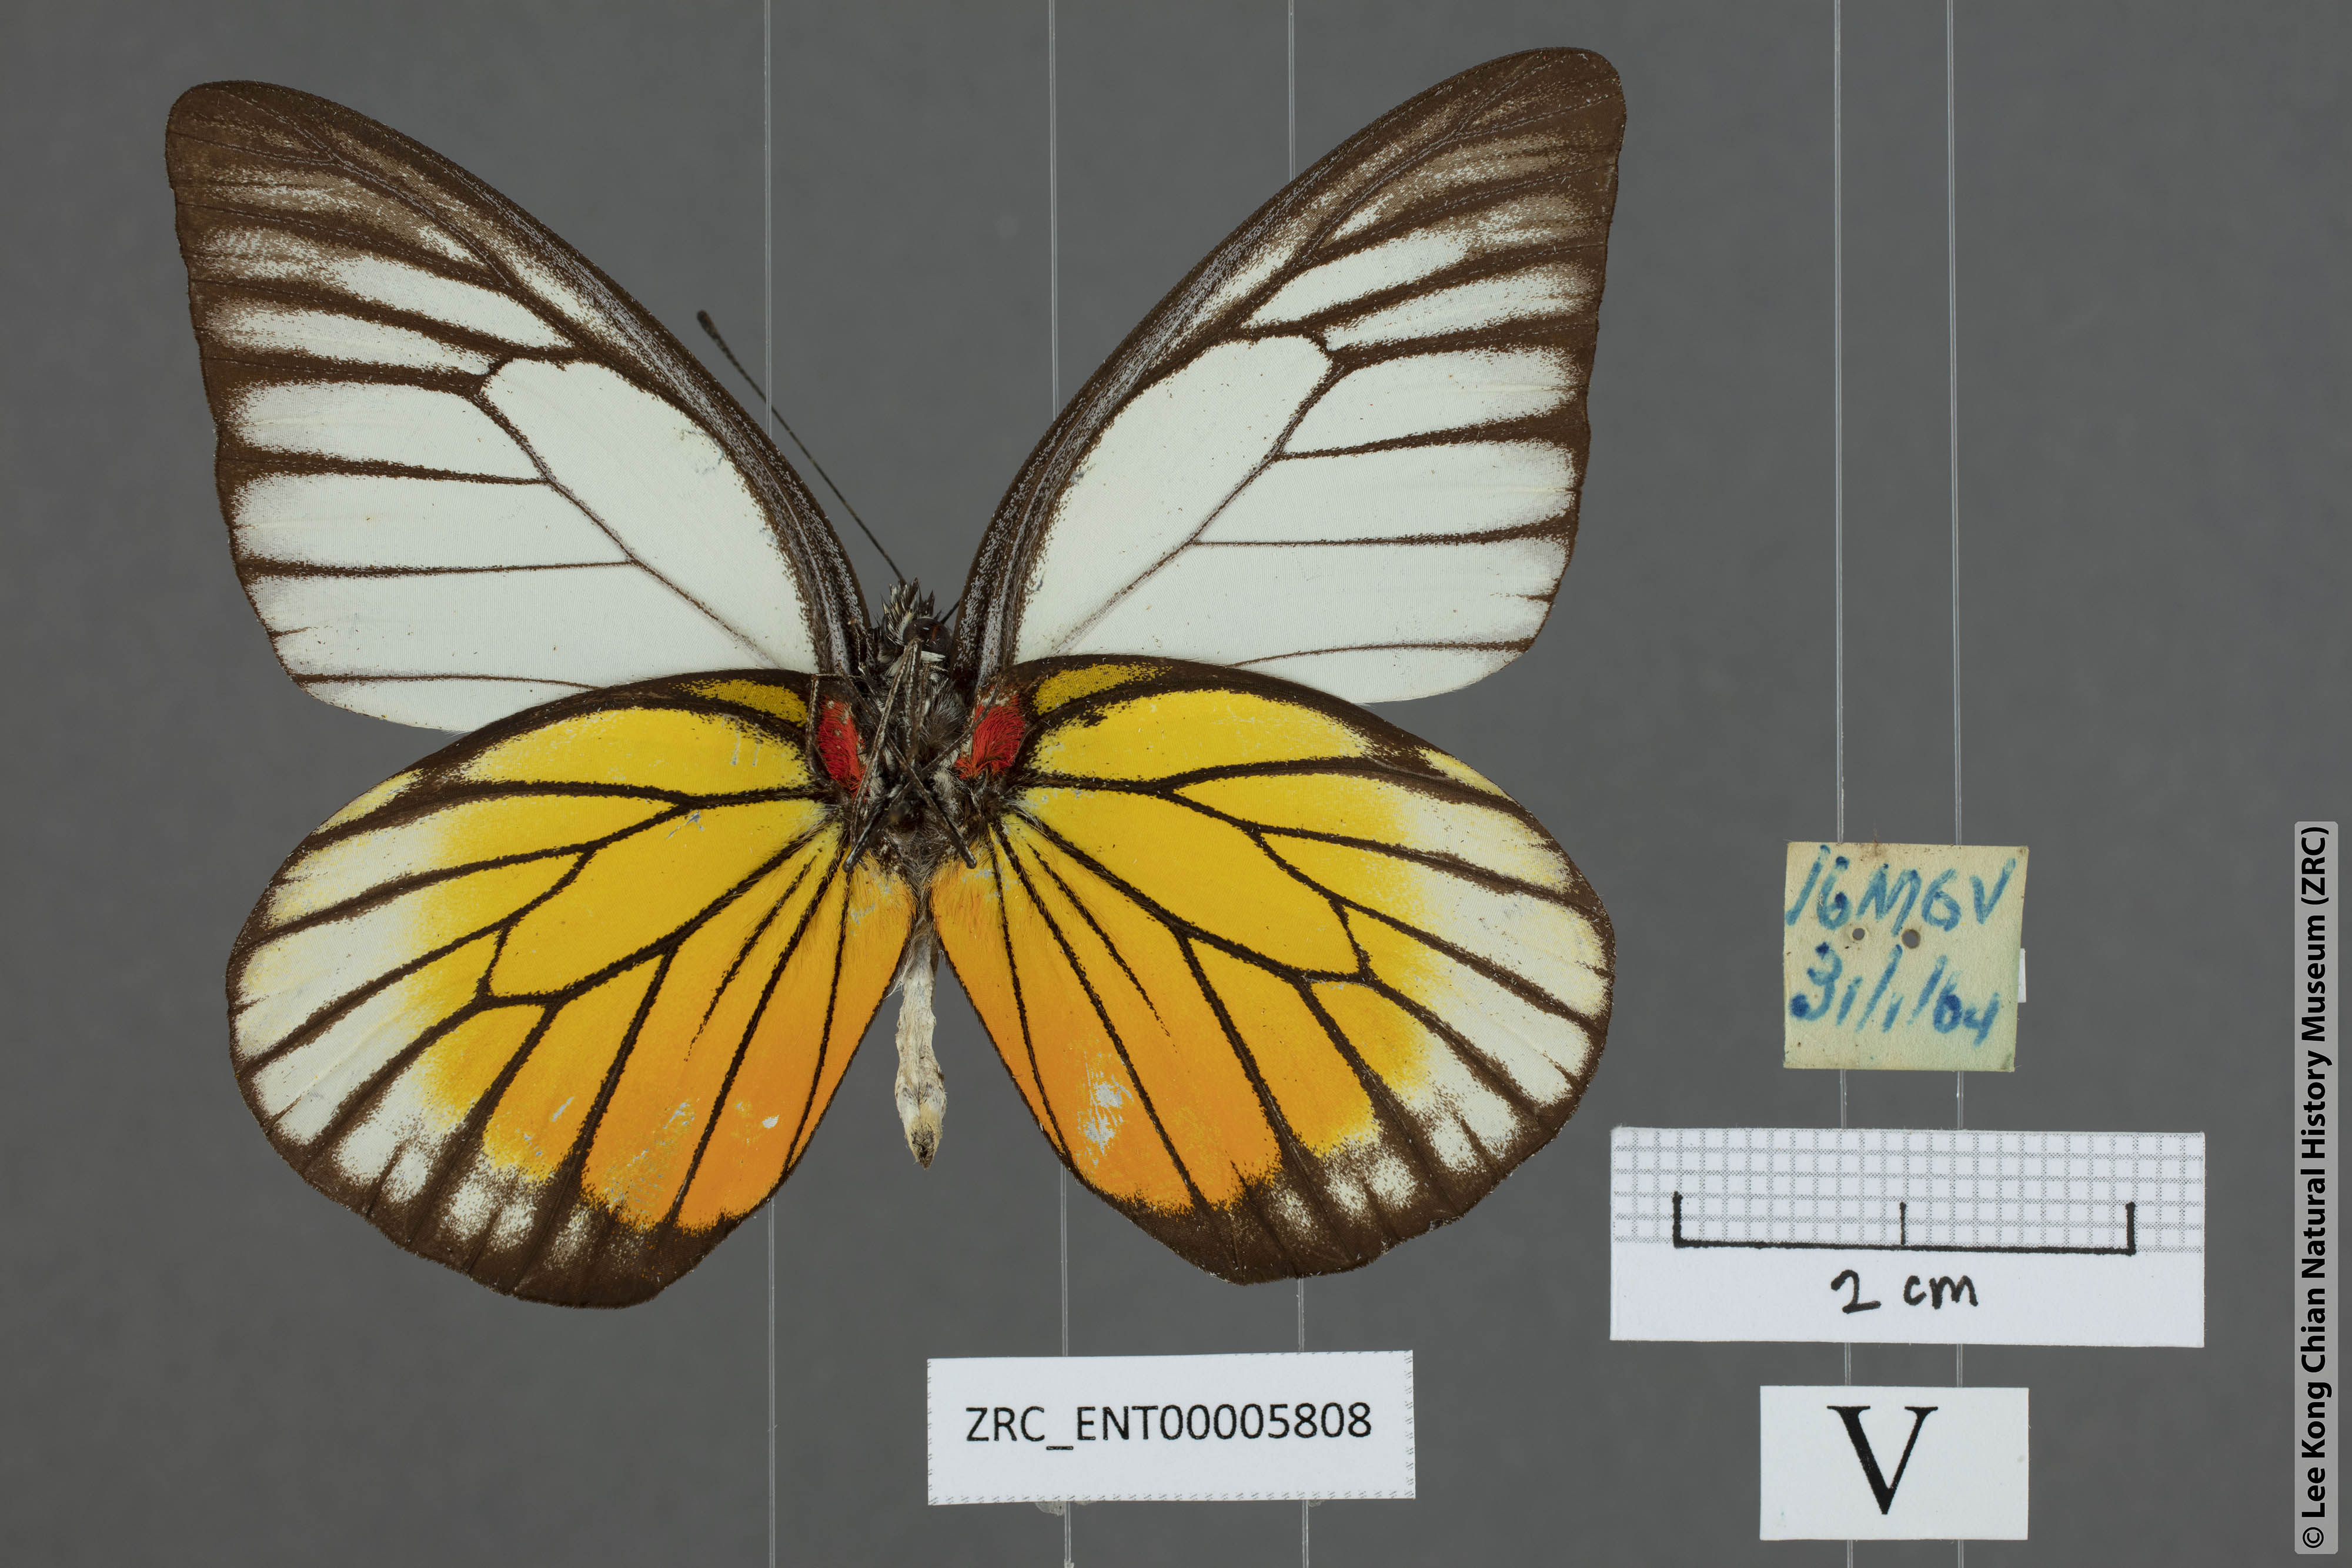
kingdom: Animalia
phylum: Arthropoda
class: Insecta
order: Lepidoptera
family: Pieridae
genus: Prioneris
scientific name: Prioneris philonome
